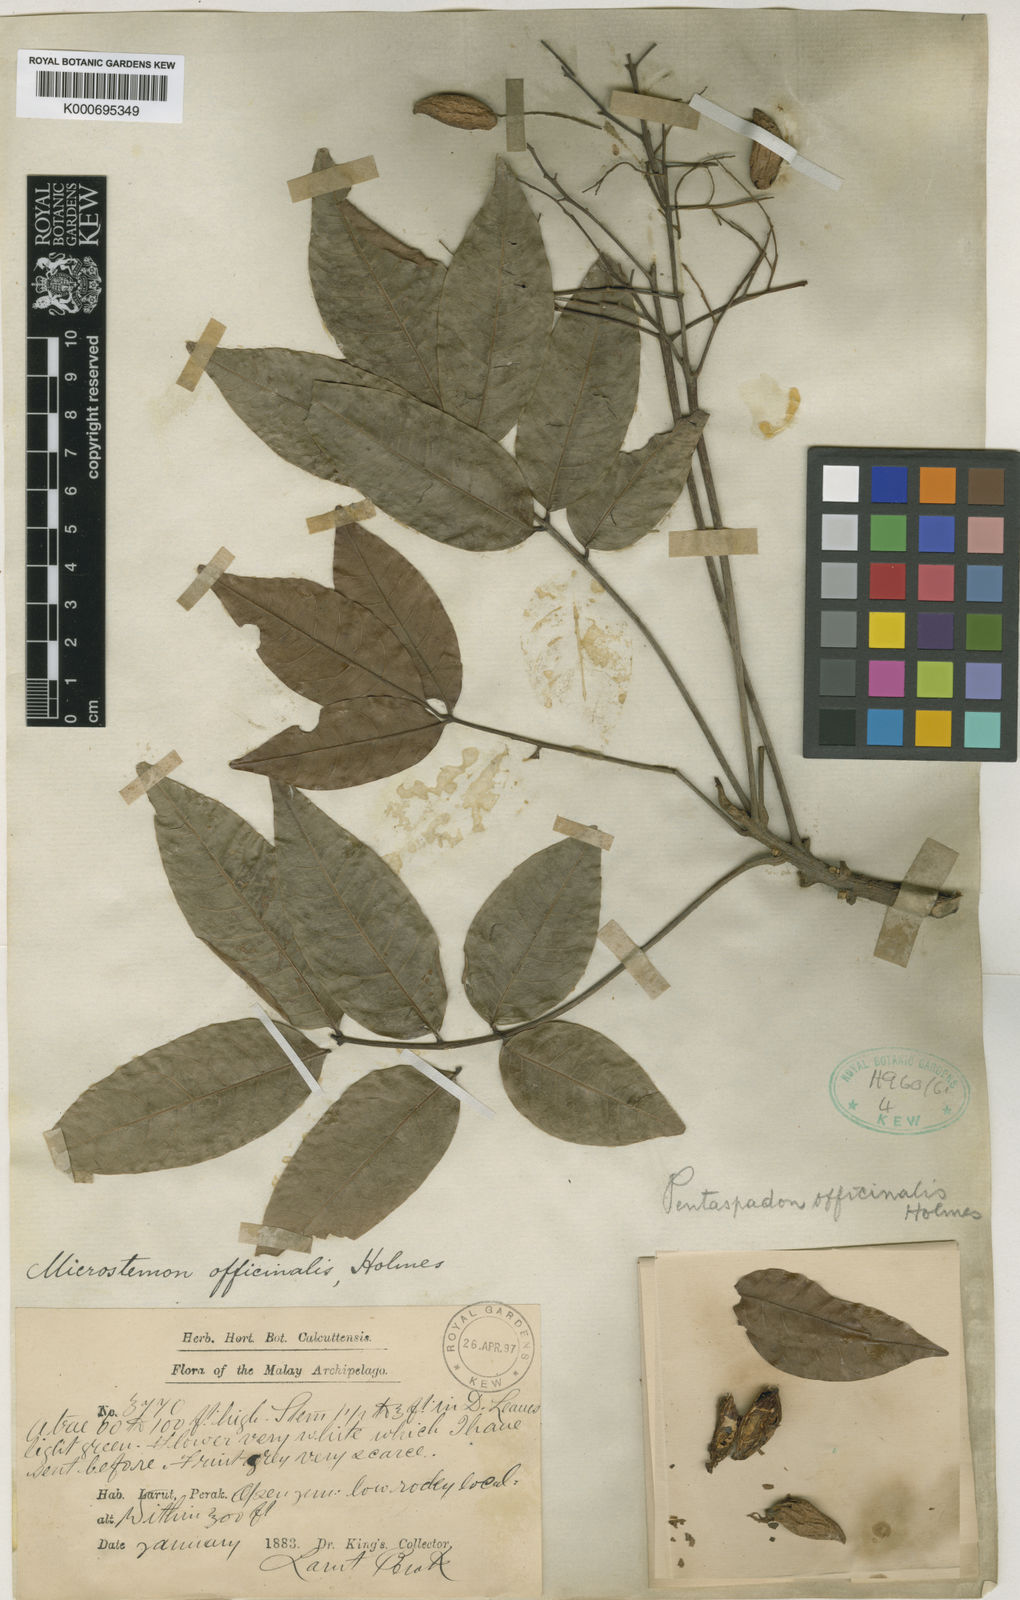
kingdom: Plantae
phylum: Tracheophyta
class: Magnoliopsida
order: Sapindales
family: Anacardiaceae
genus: Pentaspadon
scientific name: Pentaspadon motleyi
